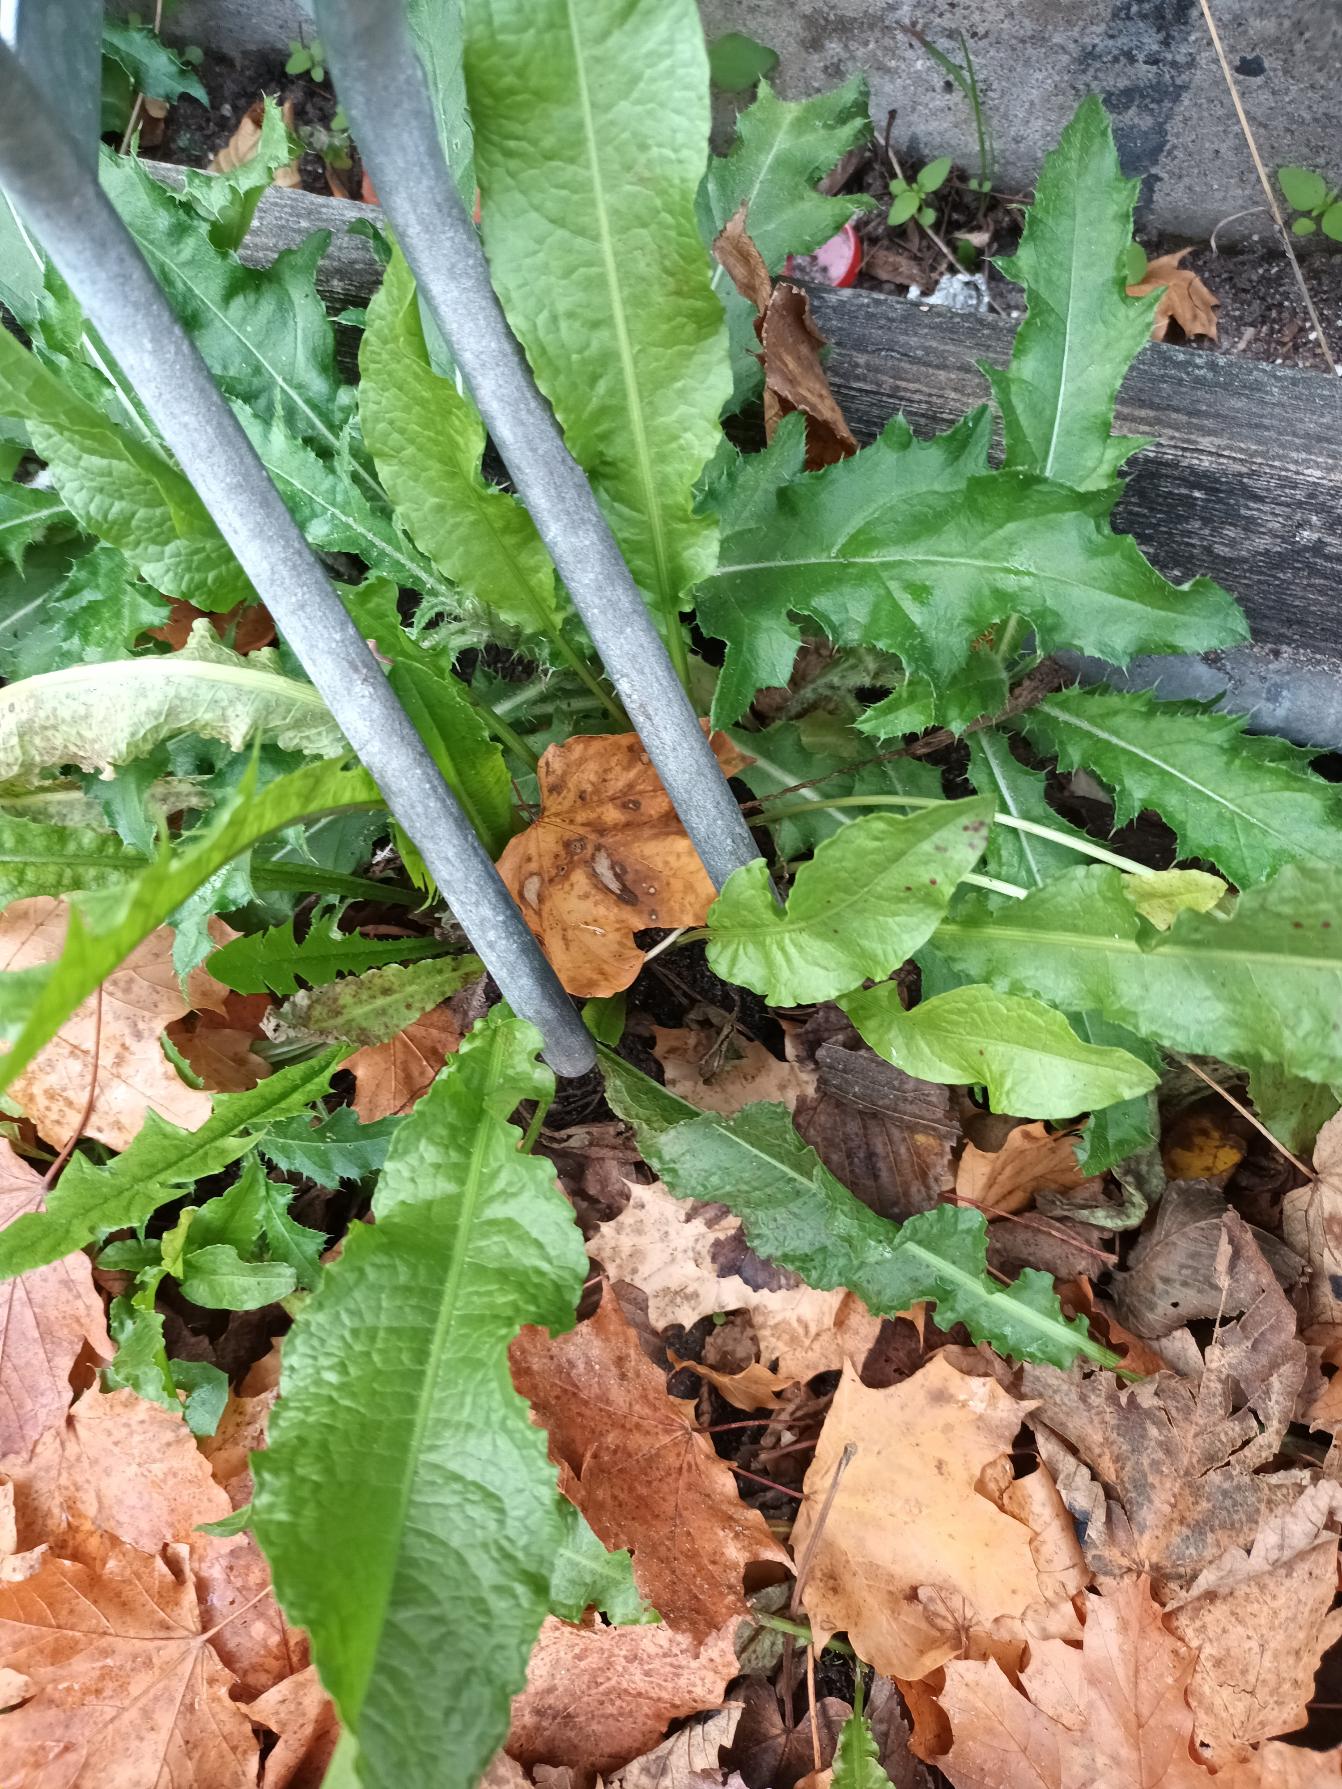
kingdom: Plantae
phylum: Tracheophyta
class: Magnoliopsida
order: Caryophyllales
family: Polygonaceae
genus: Rumex
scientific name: Rumex crispus
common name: Kruset skræppe
